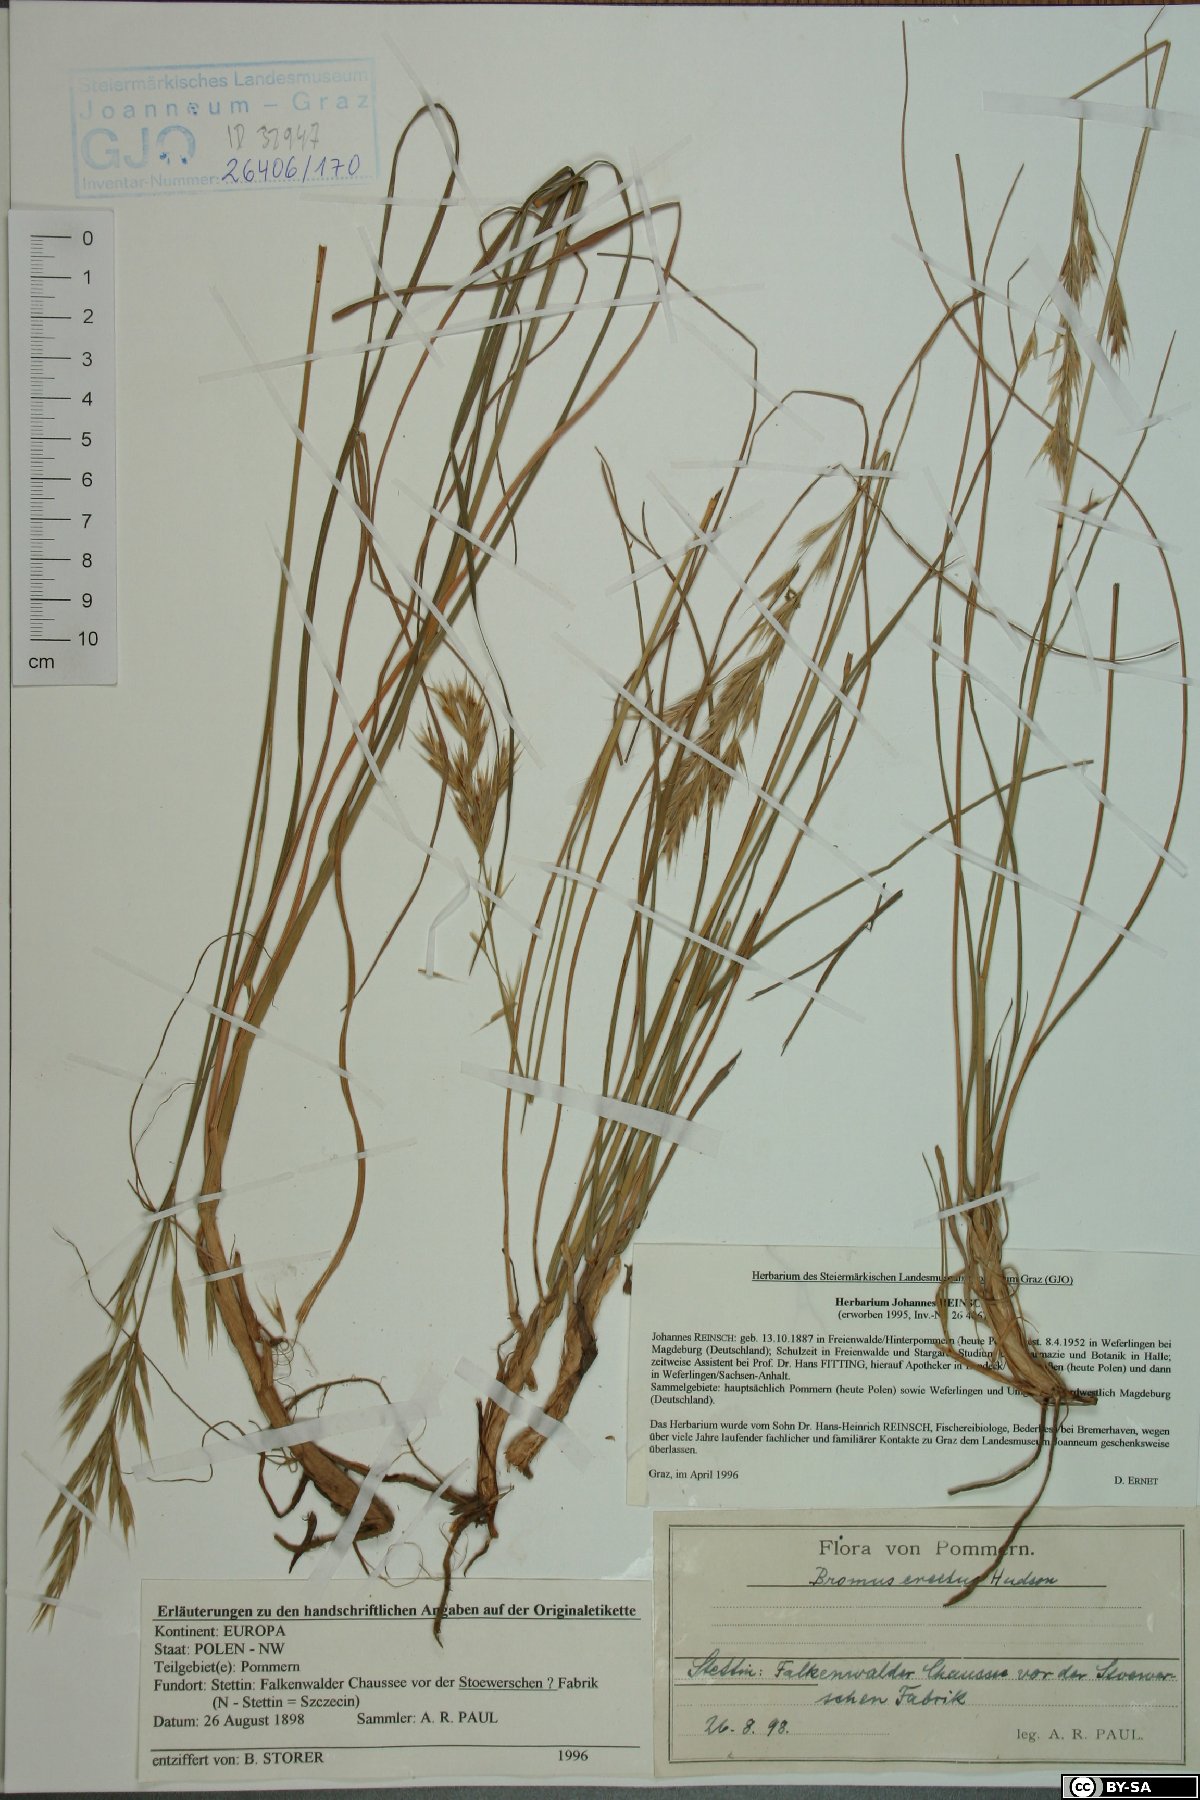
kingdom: Plantae
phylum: Tracheophyta
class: Liliopsida
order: Poales
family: Poaceae
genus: Bromus
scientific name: Bromus erectus
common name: Erect brome
